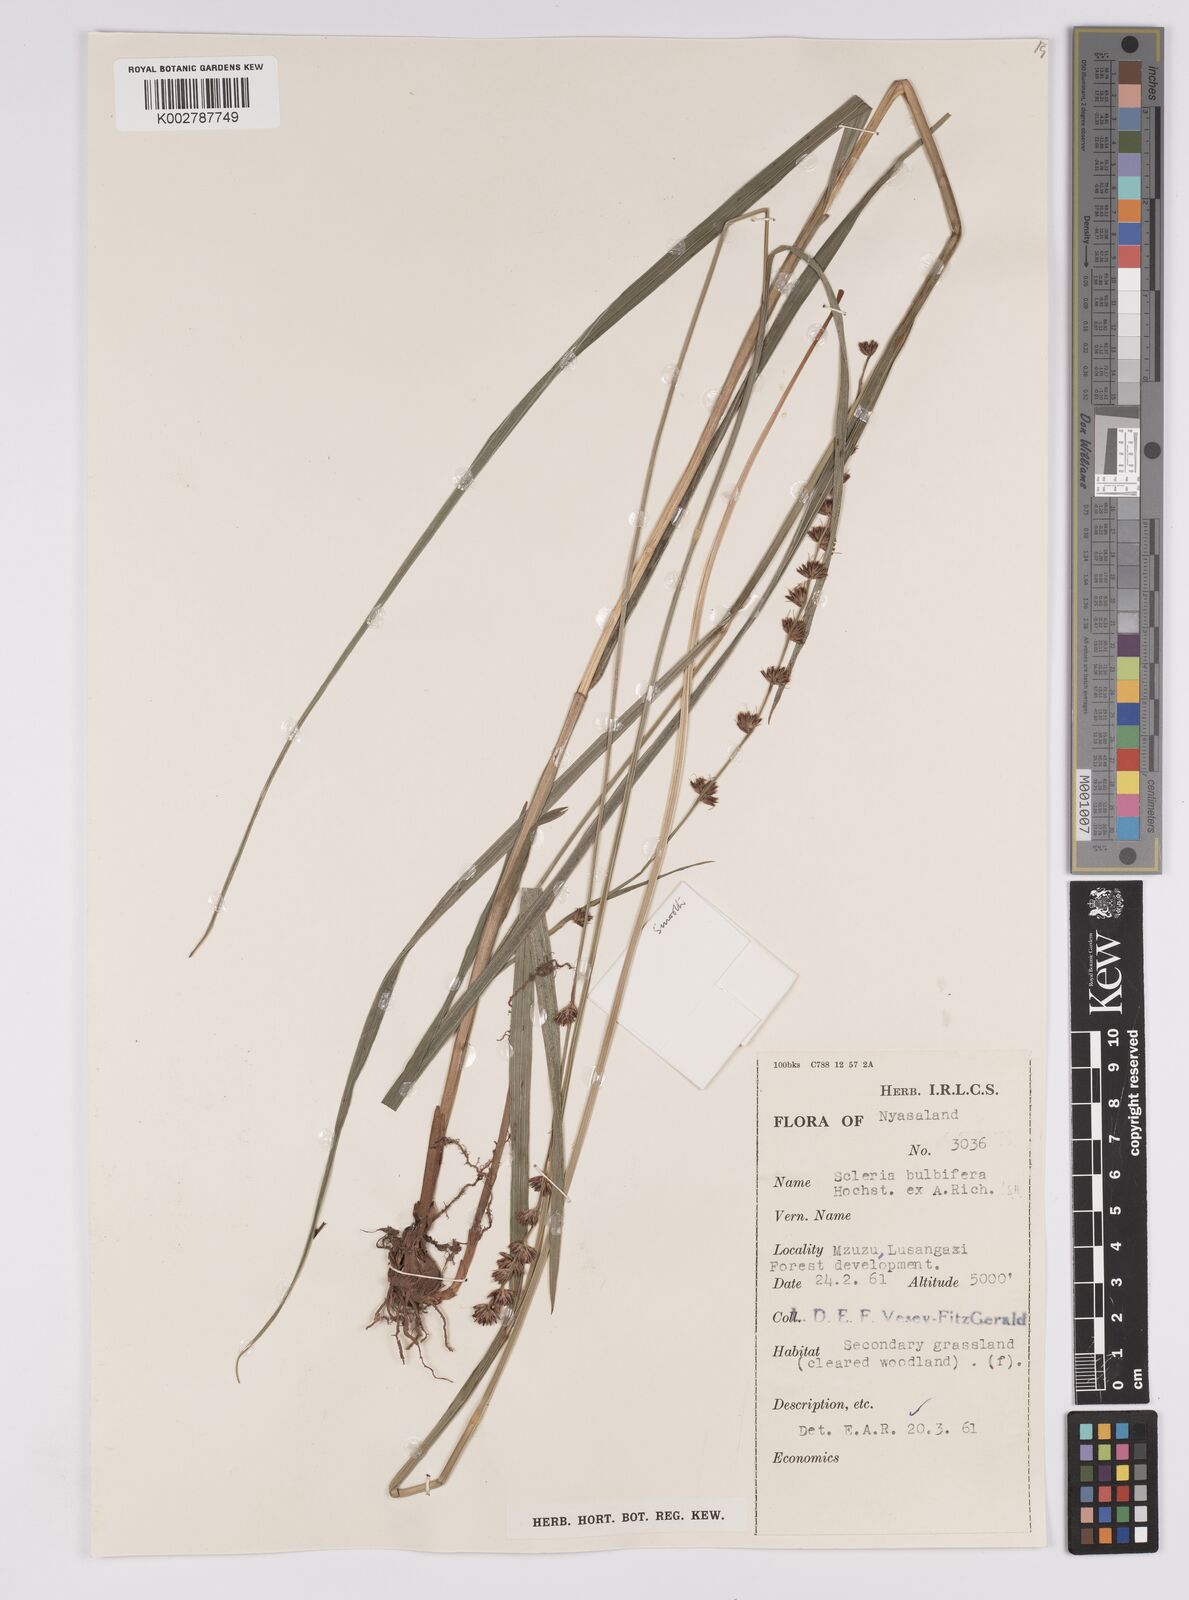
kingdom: Plantae
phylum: Tracheophyta
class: Liliopsida
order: Poales
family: Cyperaceae
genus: Scleria
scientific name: Scleria bulbifera
